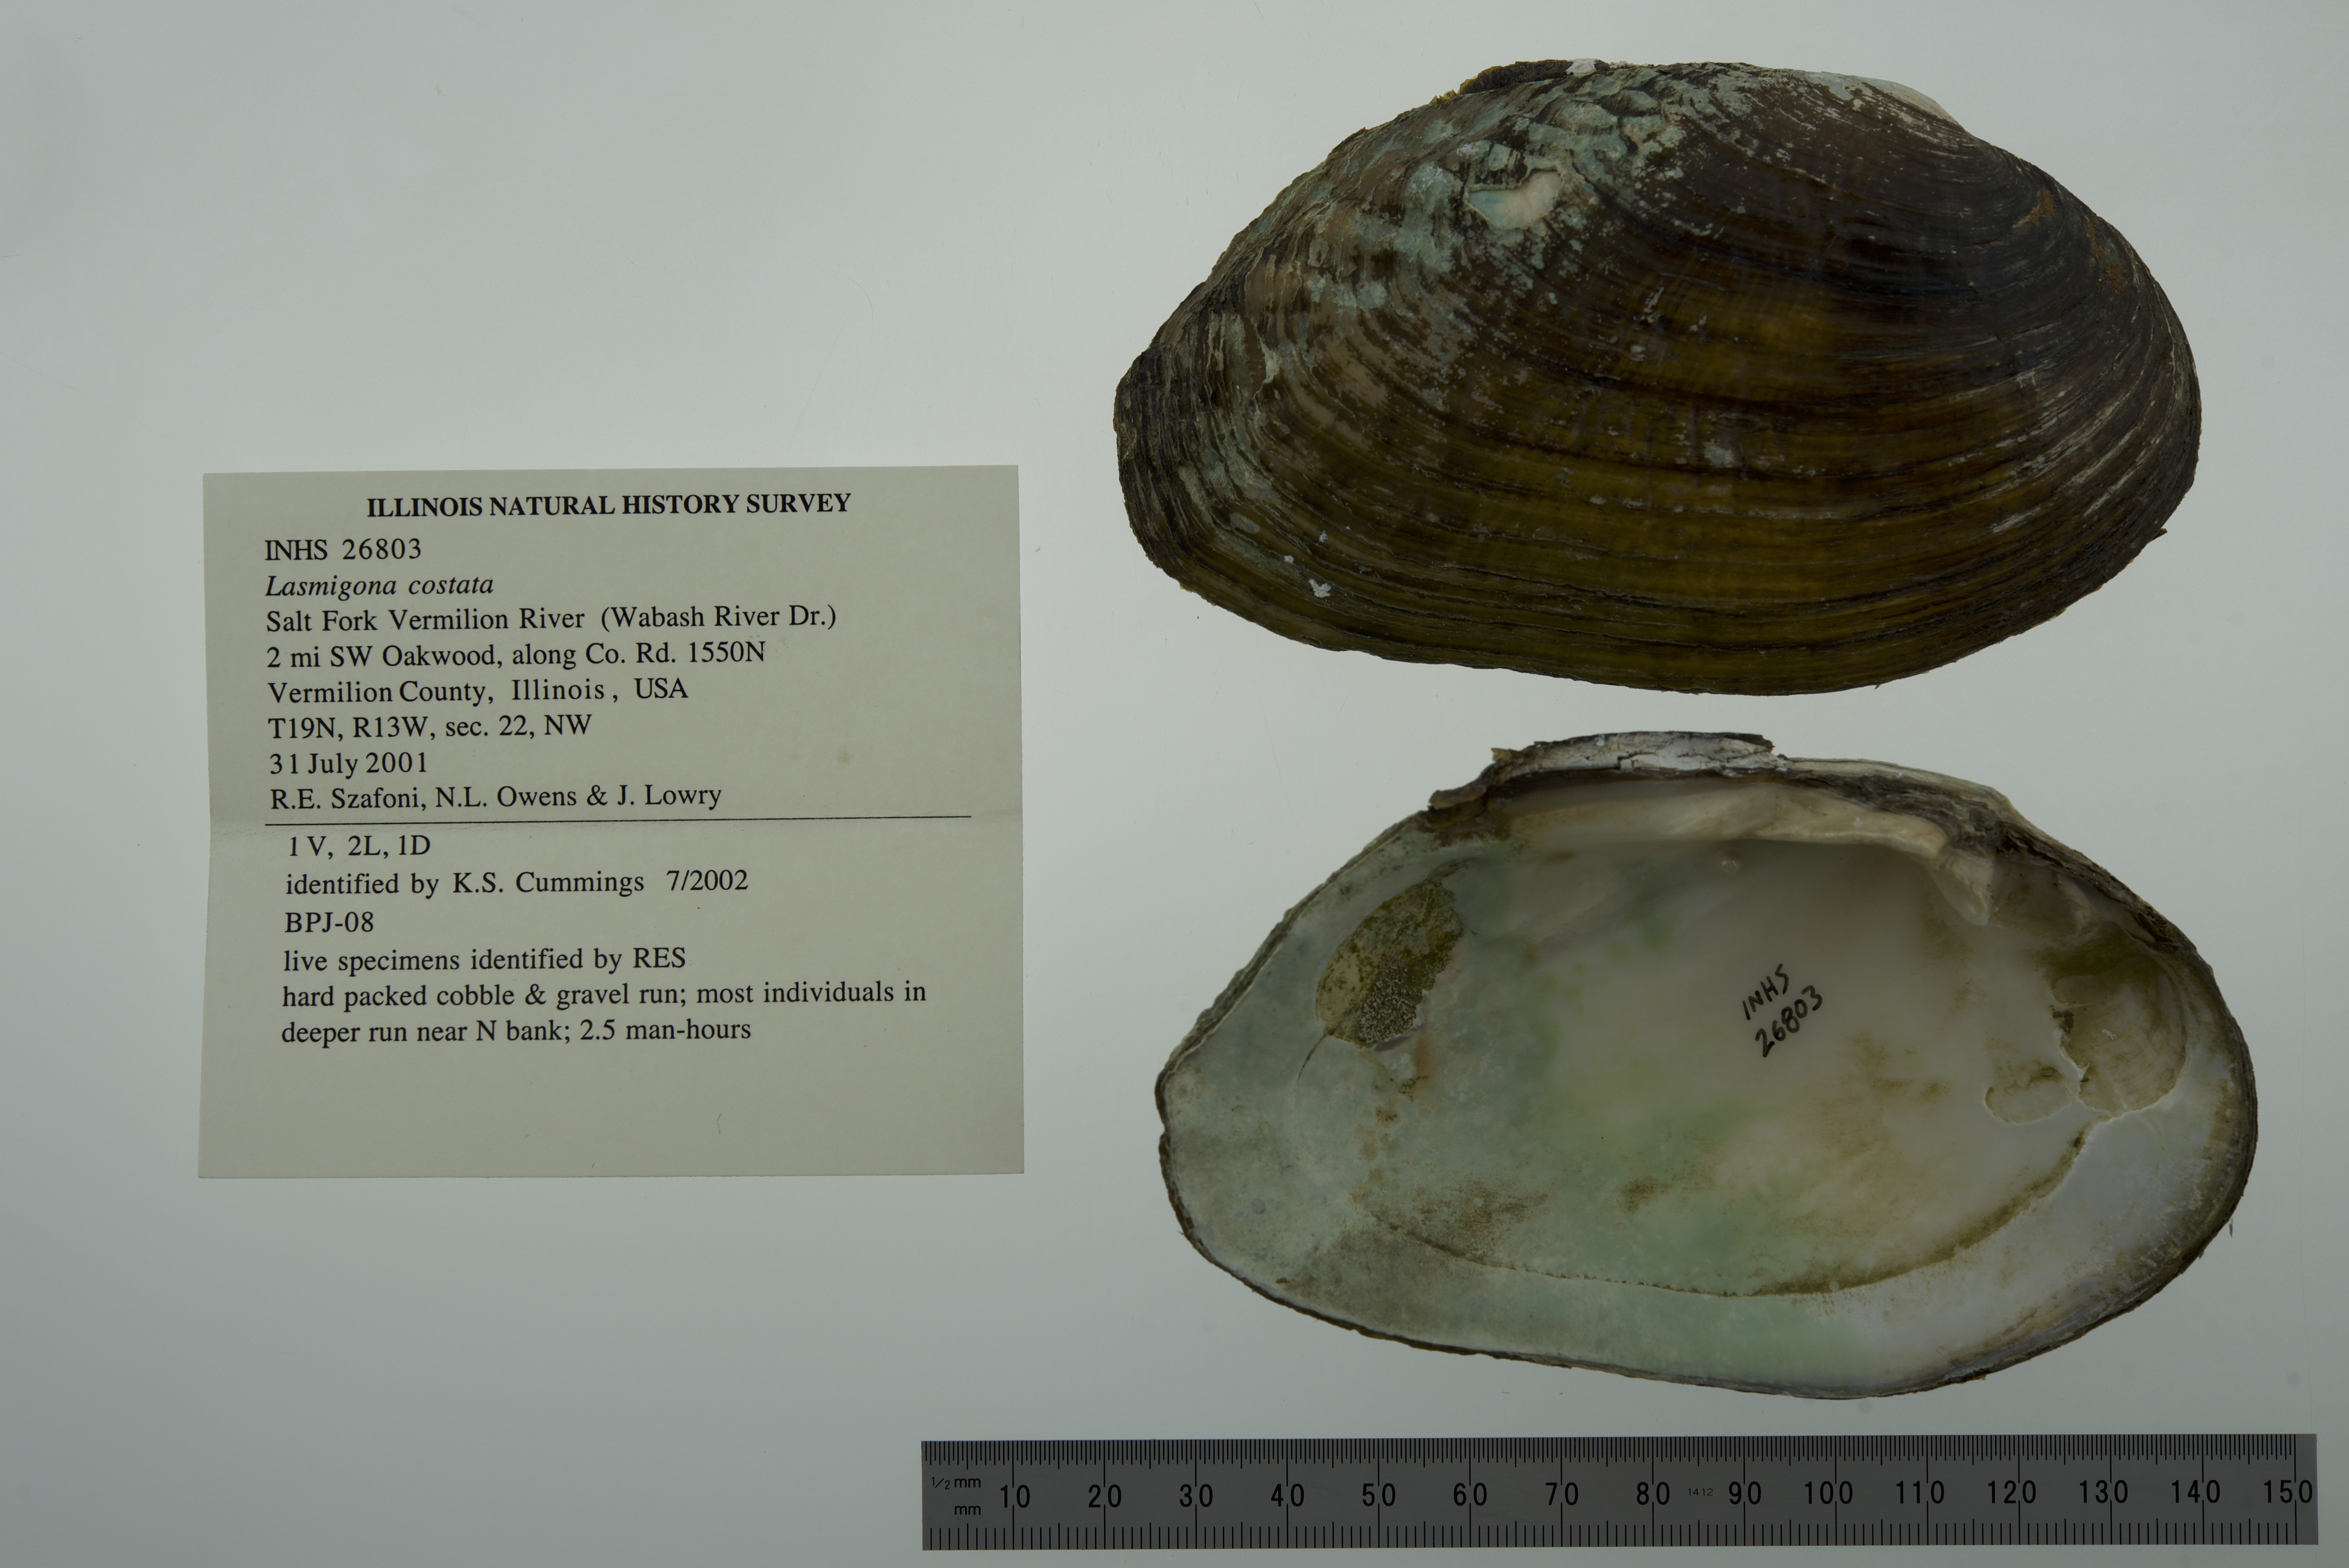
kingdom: Animalia
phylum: Mollusca
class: Bivalvia
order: Unionida
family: Unionidae
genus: Lasmigona
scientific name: Lasmigona costata
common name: Flutedshell
